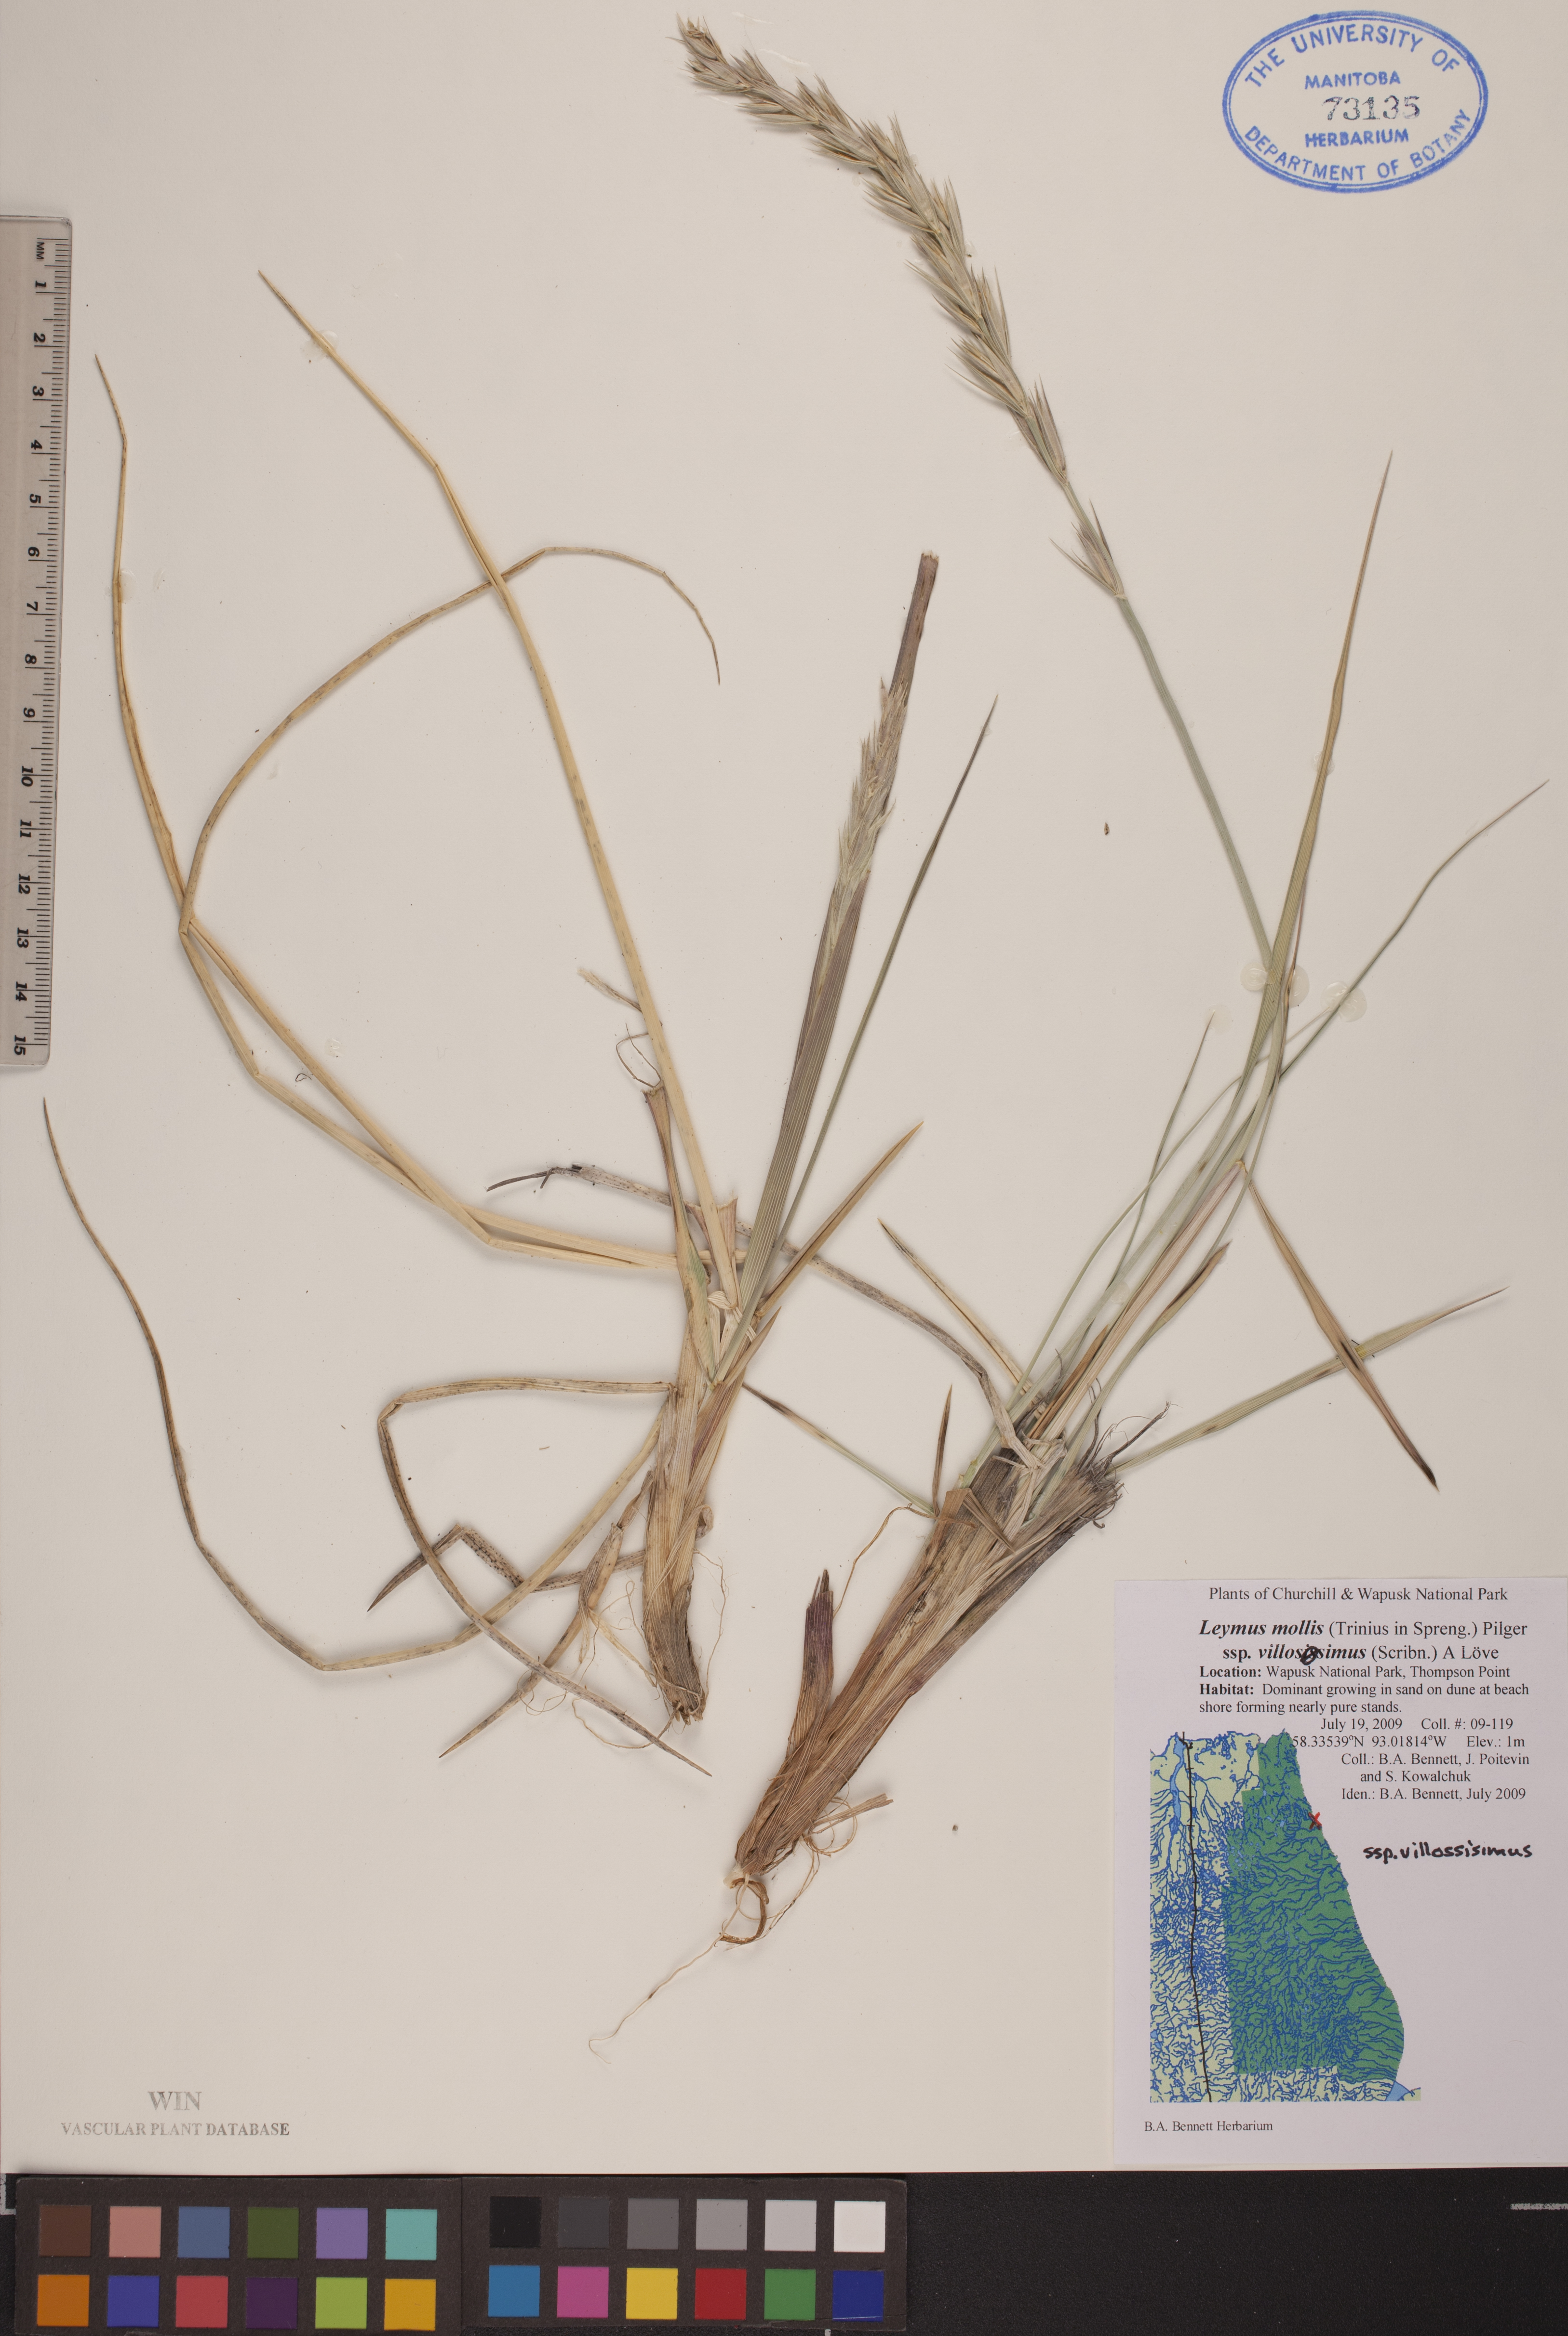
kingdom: Plantae
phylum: Tracheophyta
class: Liliopsida
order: Poales
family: Poaceae
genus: Leymus
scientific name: Leymus villosissimus
